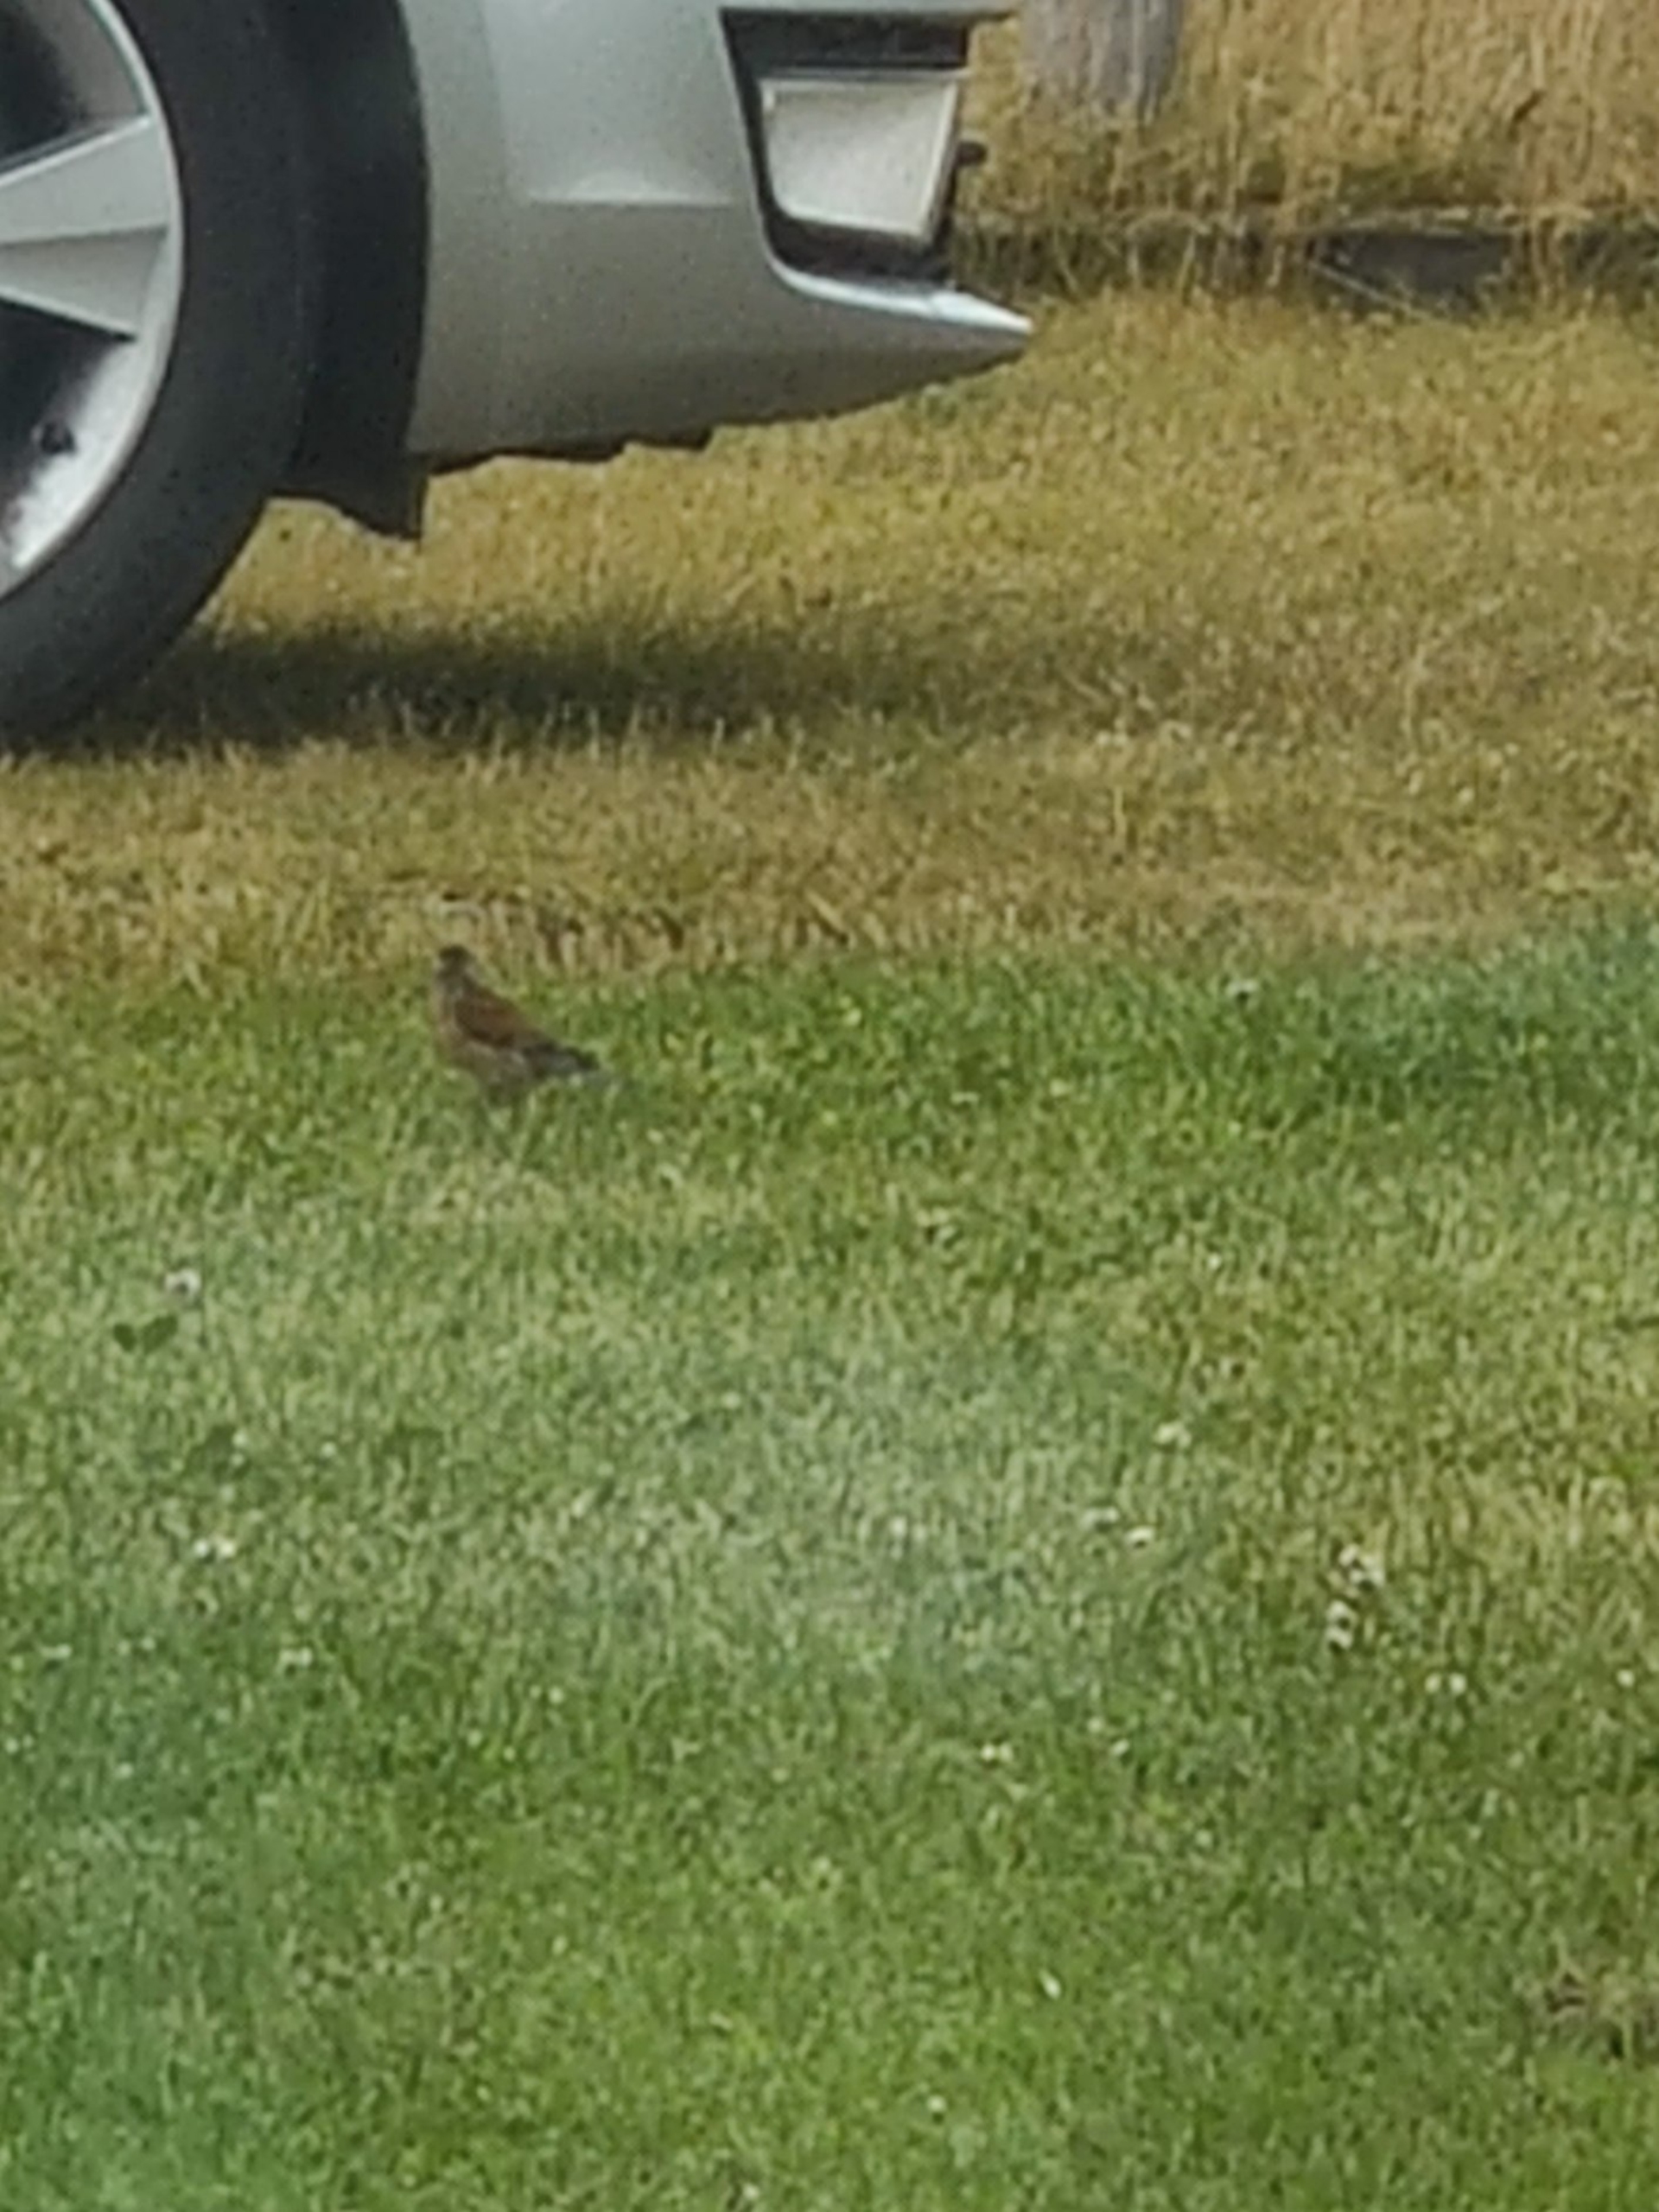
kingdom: Animalia
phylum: Chordata
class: Aves
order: Passeriformes
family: Fringillidae
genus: Linaria
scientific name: Linaria cannabina
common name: Tornirisk
